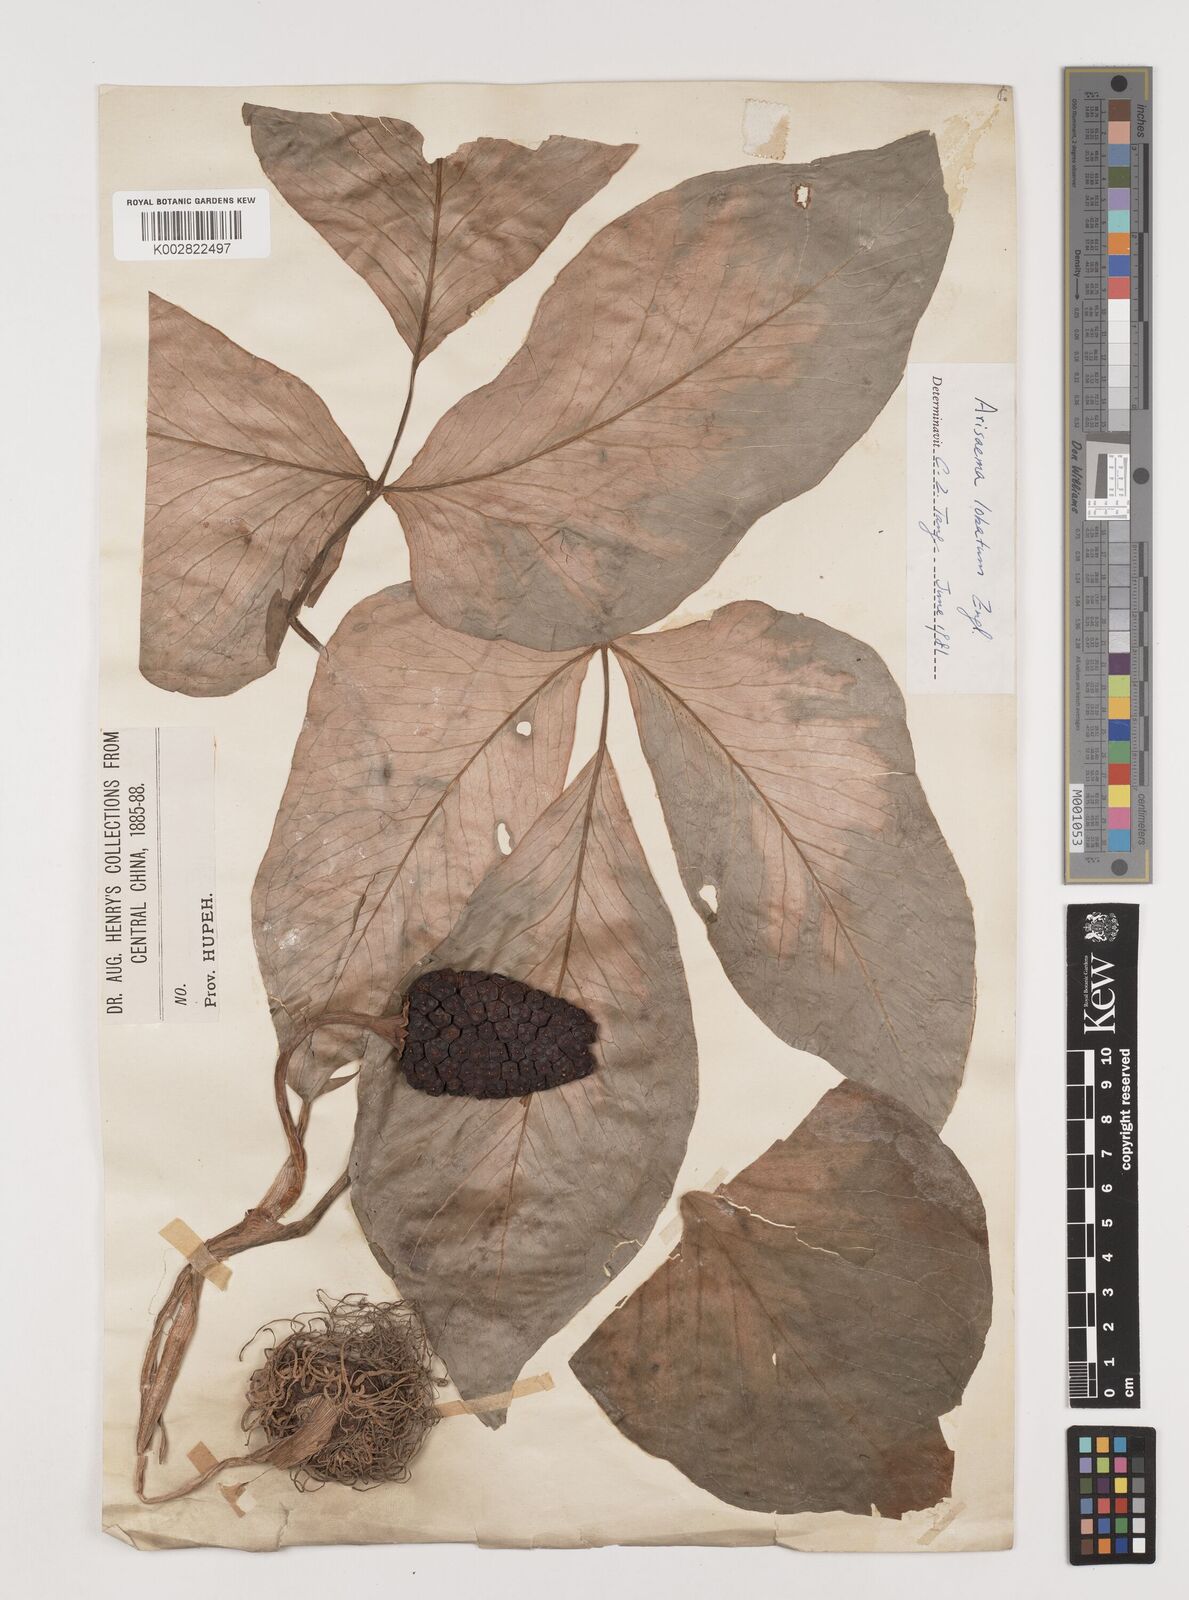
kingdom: Plantae
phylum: Tracheophyta
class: Liliopsida
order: Alismatales
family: Araceae
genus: Arisaema
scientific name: Arisaema lobatum
